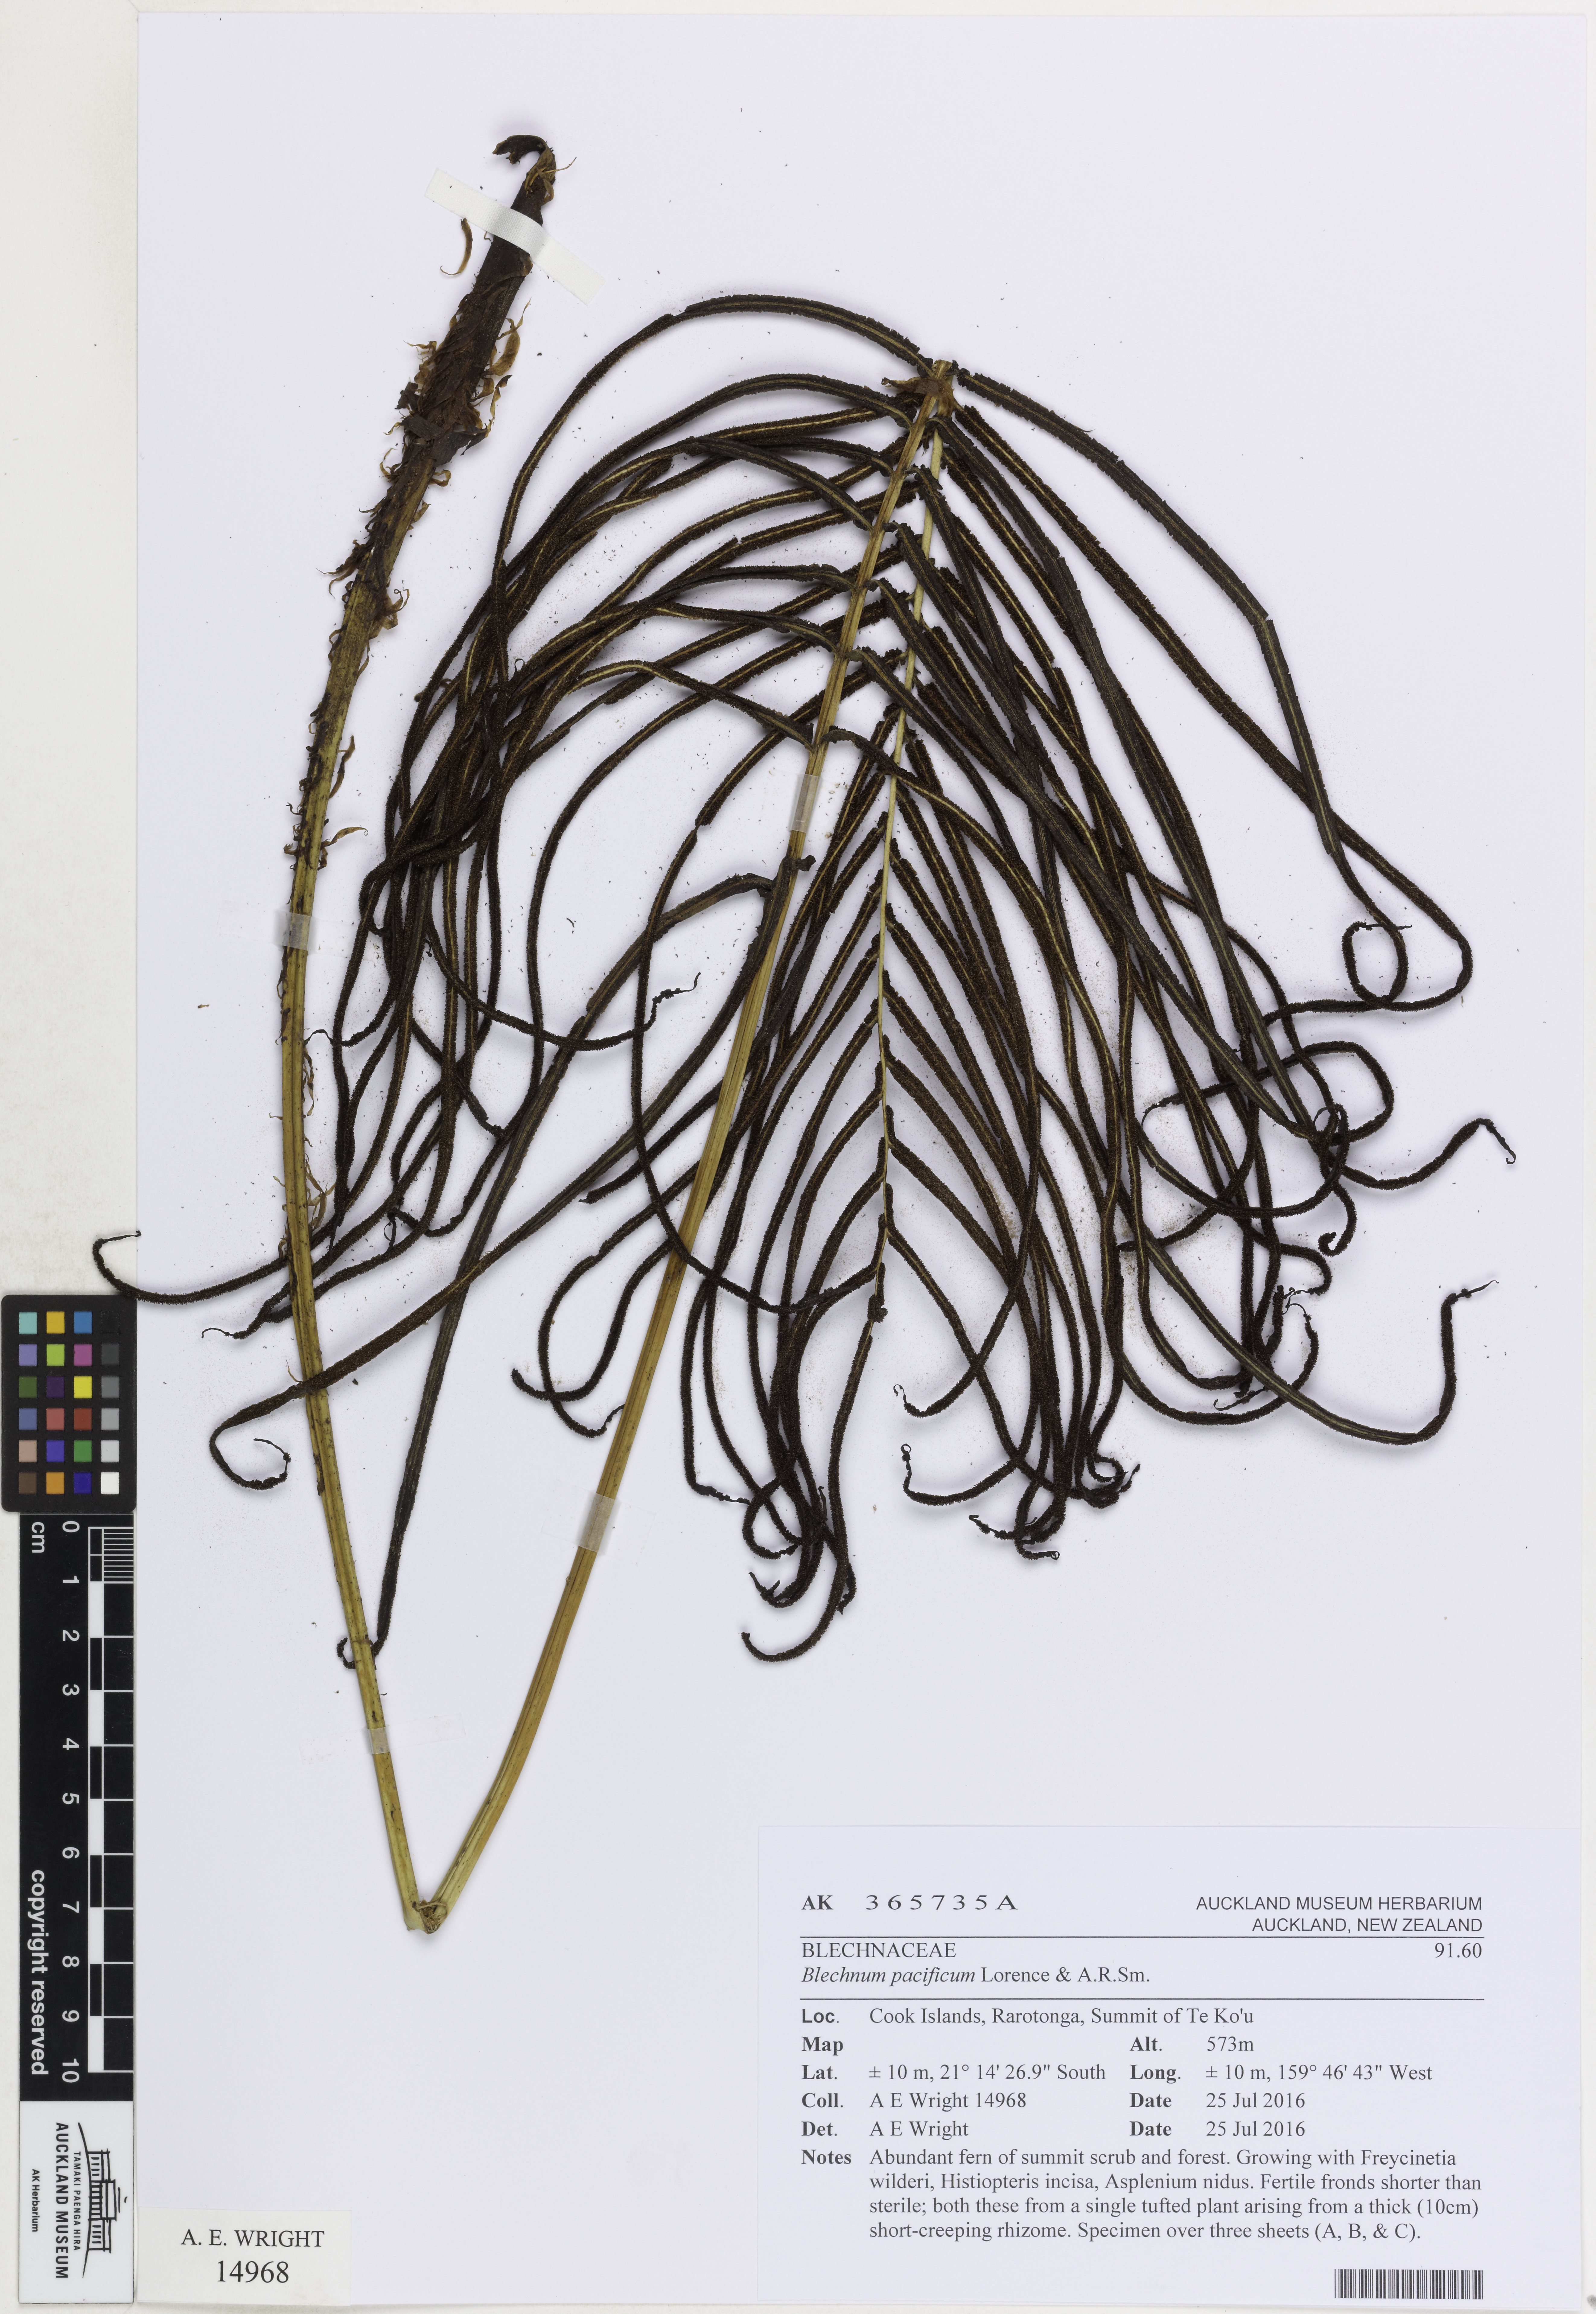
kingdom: Plantae
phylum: Tracheophyta
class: Polypodiopsida
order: Polypodiales
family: Blechnaceae
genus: Parablechnum
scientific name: Parablechnum pacificum
